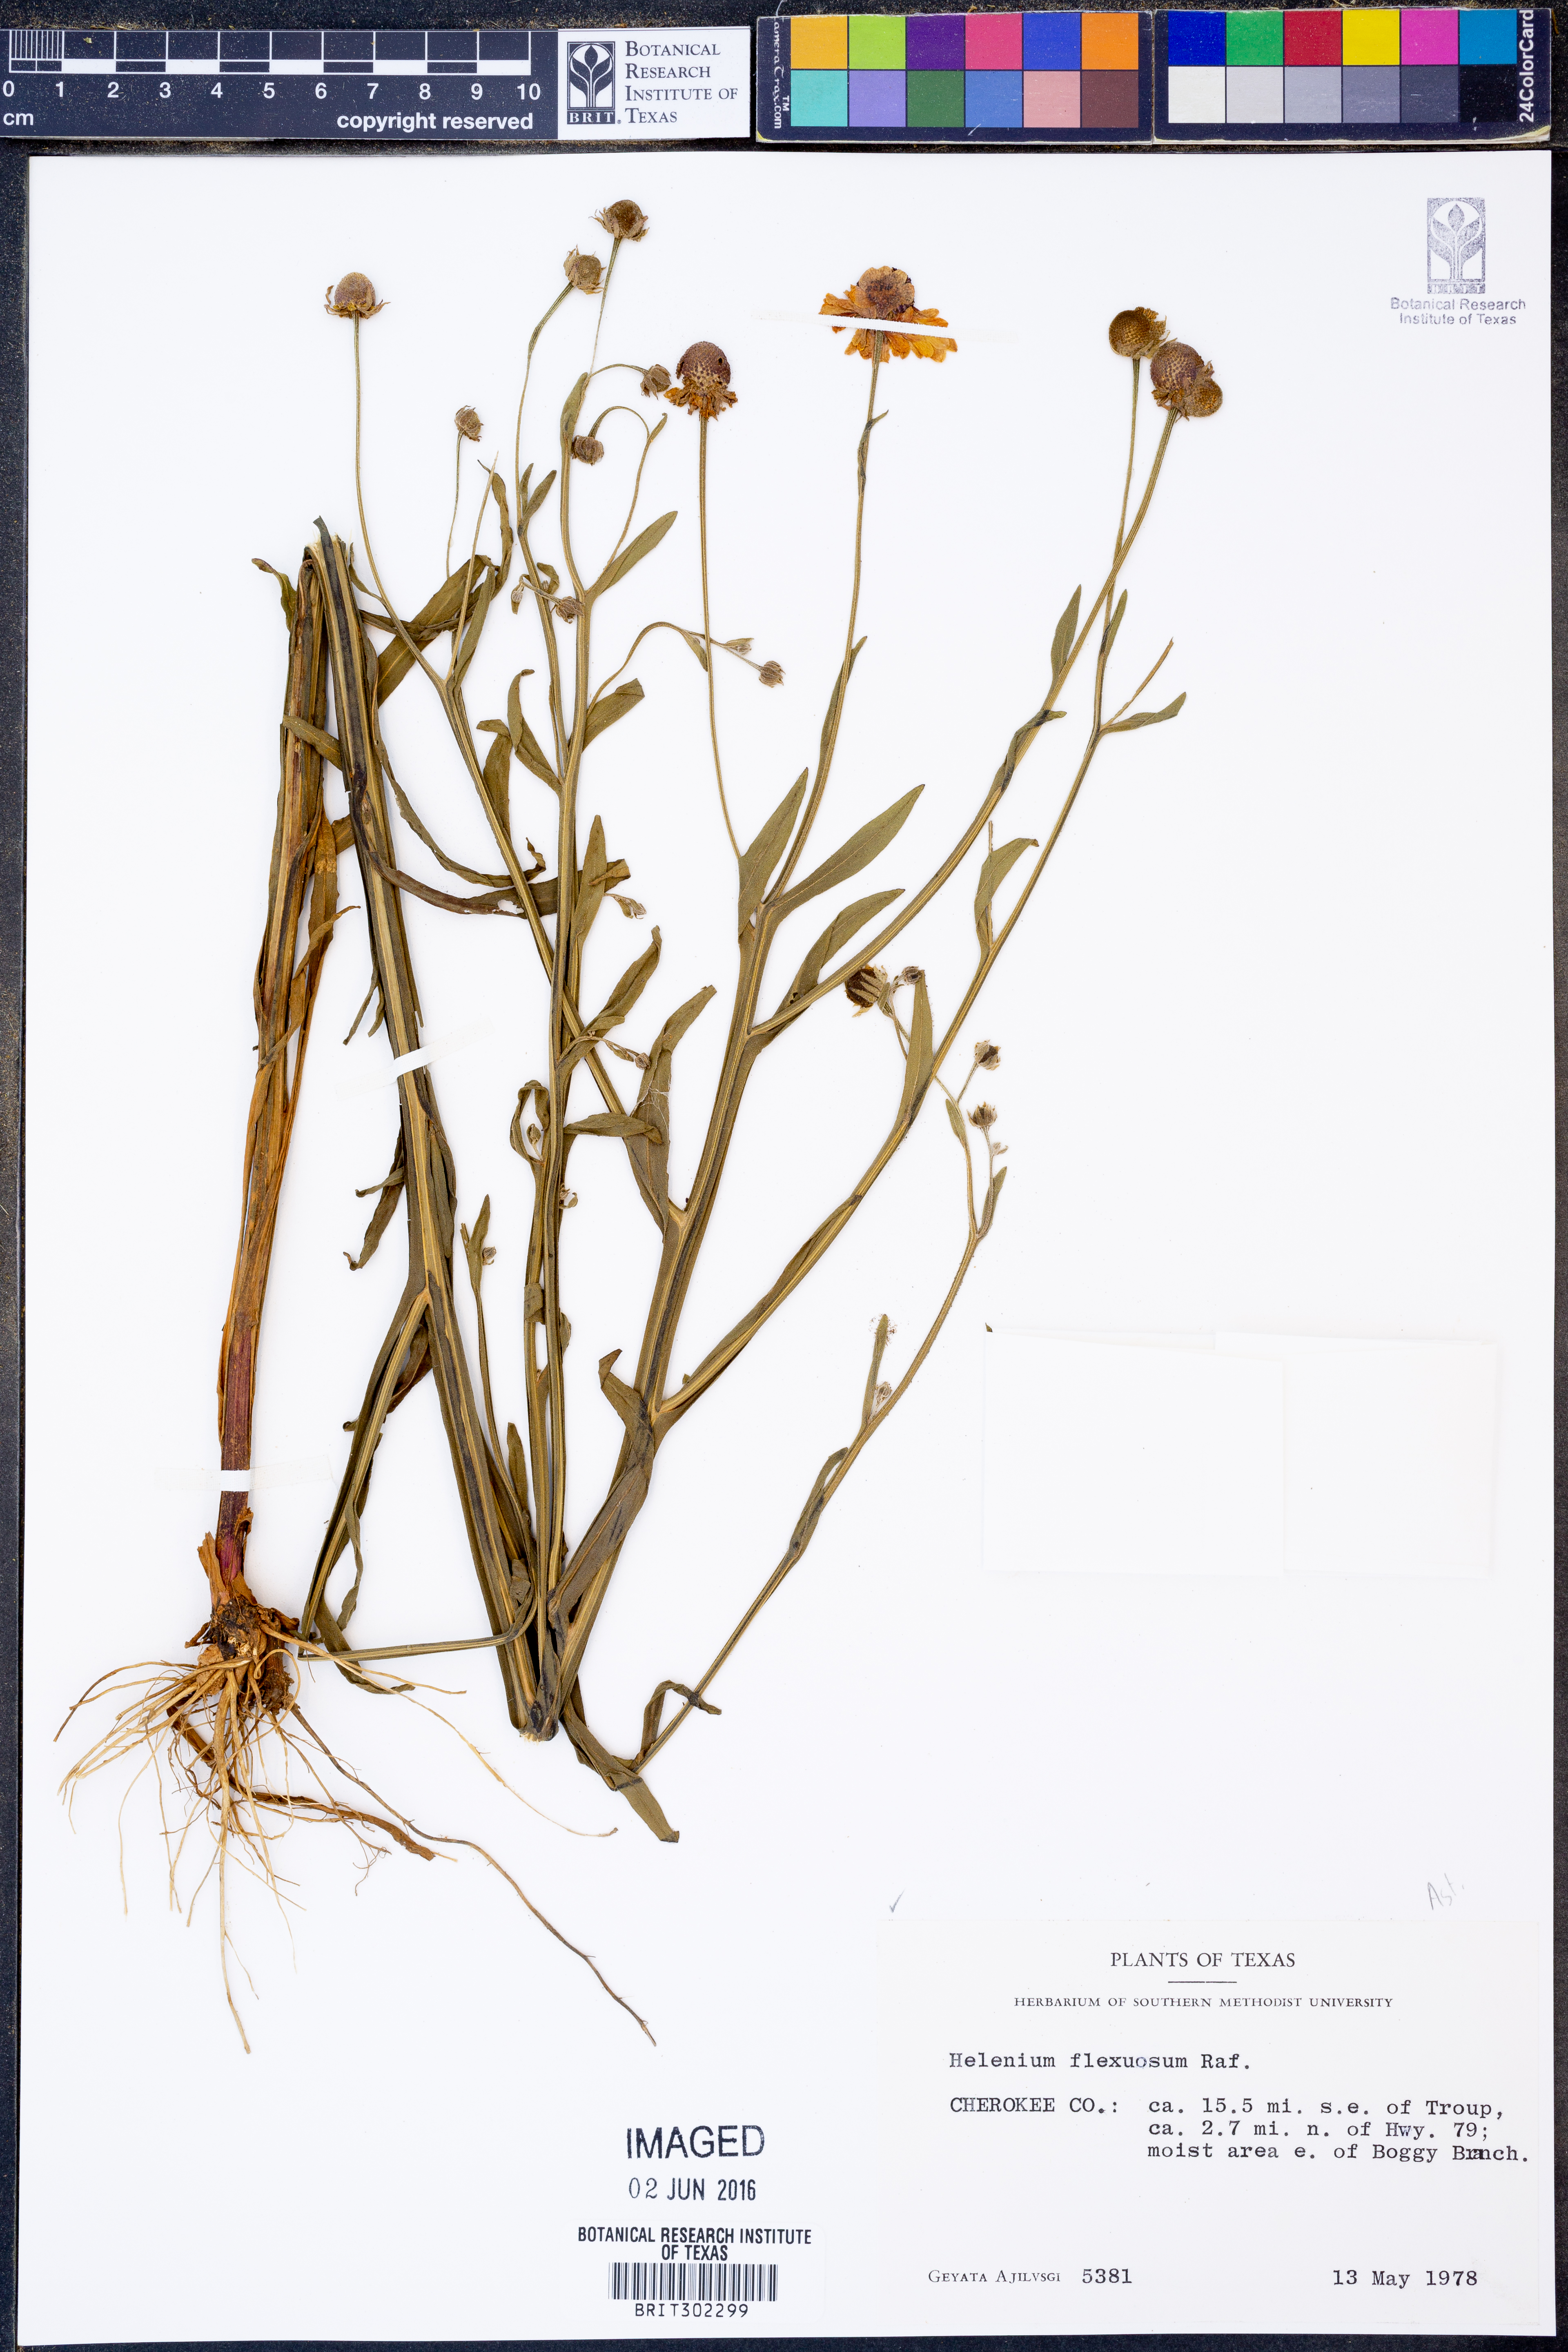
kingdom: Plantae
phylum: Tracheophyta
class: Magnoliopsida
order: Asterales
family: Asteraceae
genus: Helenium
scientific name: Helenium flexuosum
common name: Naked-flowered sneezeweed
